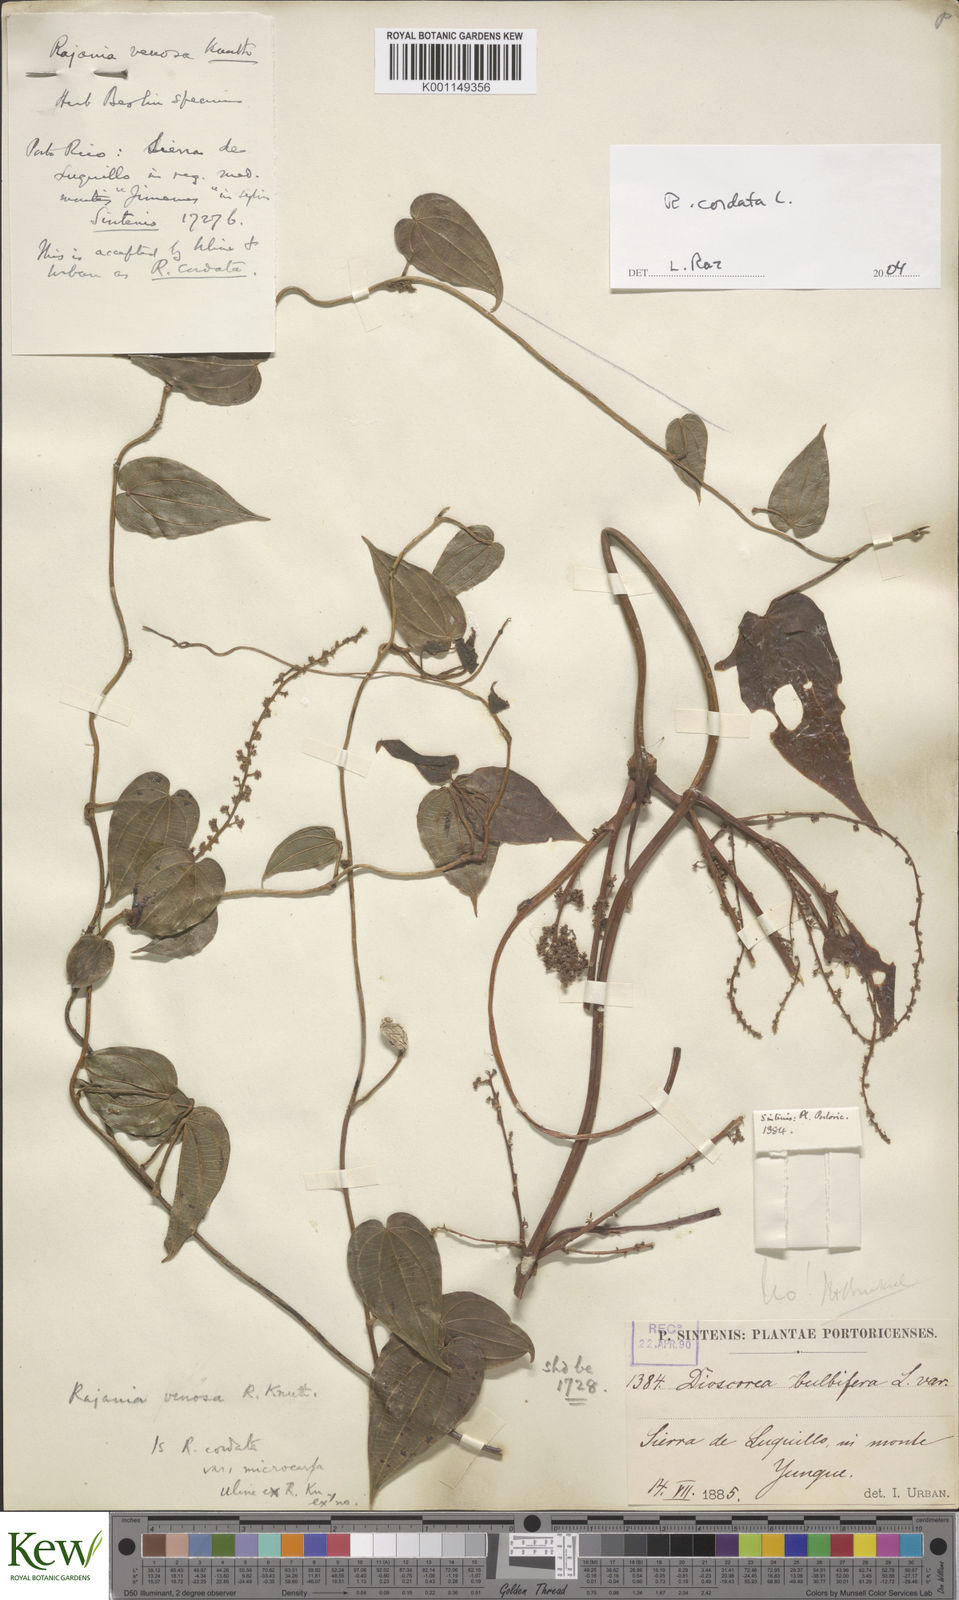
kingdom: Plantae
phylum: Tracheophyta
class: Liliopsida
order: Dioscoreales
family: Dioscoreaceae
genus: Dioscorea
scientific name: Dioscorea
